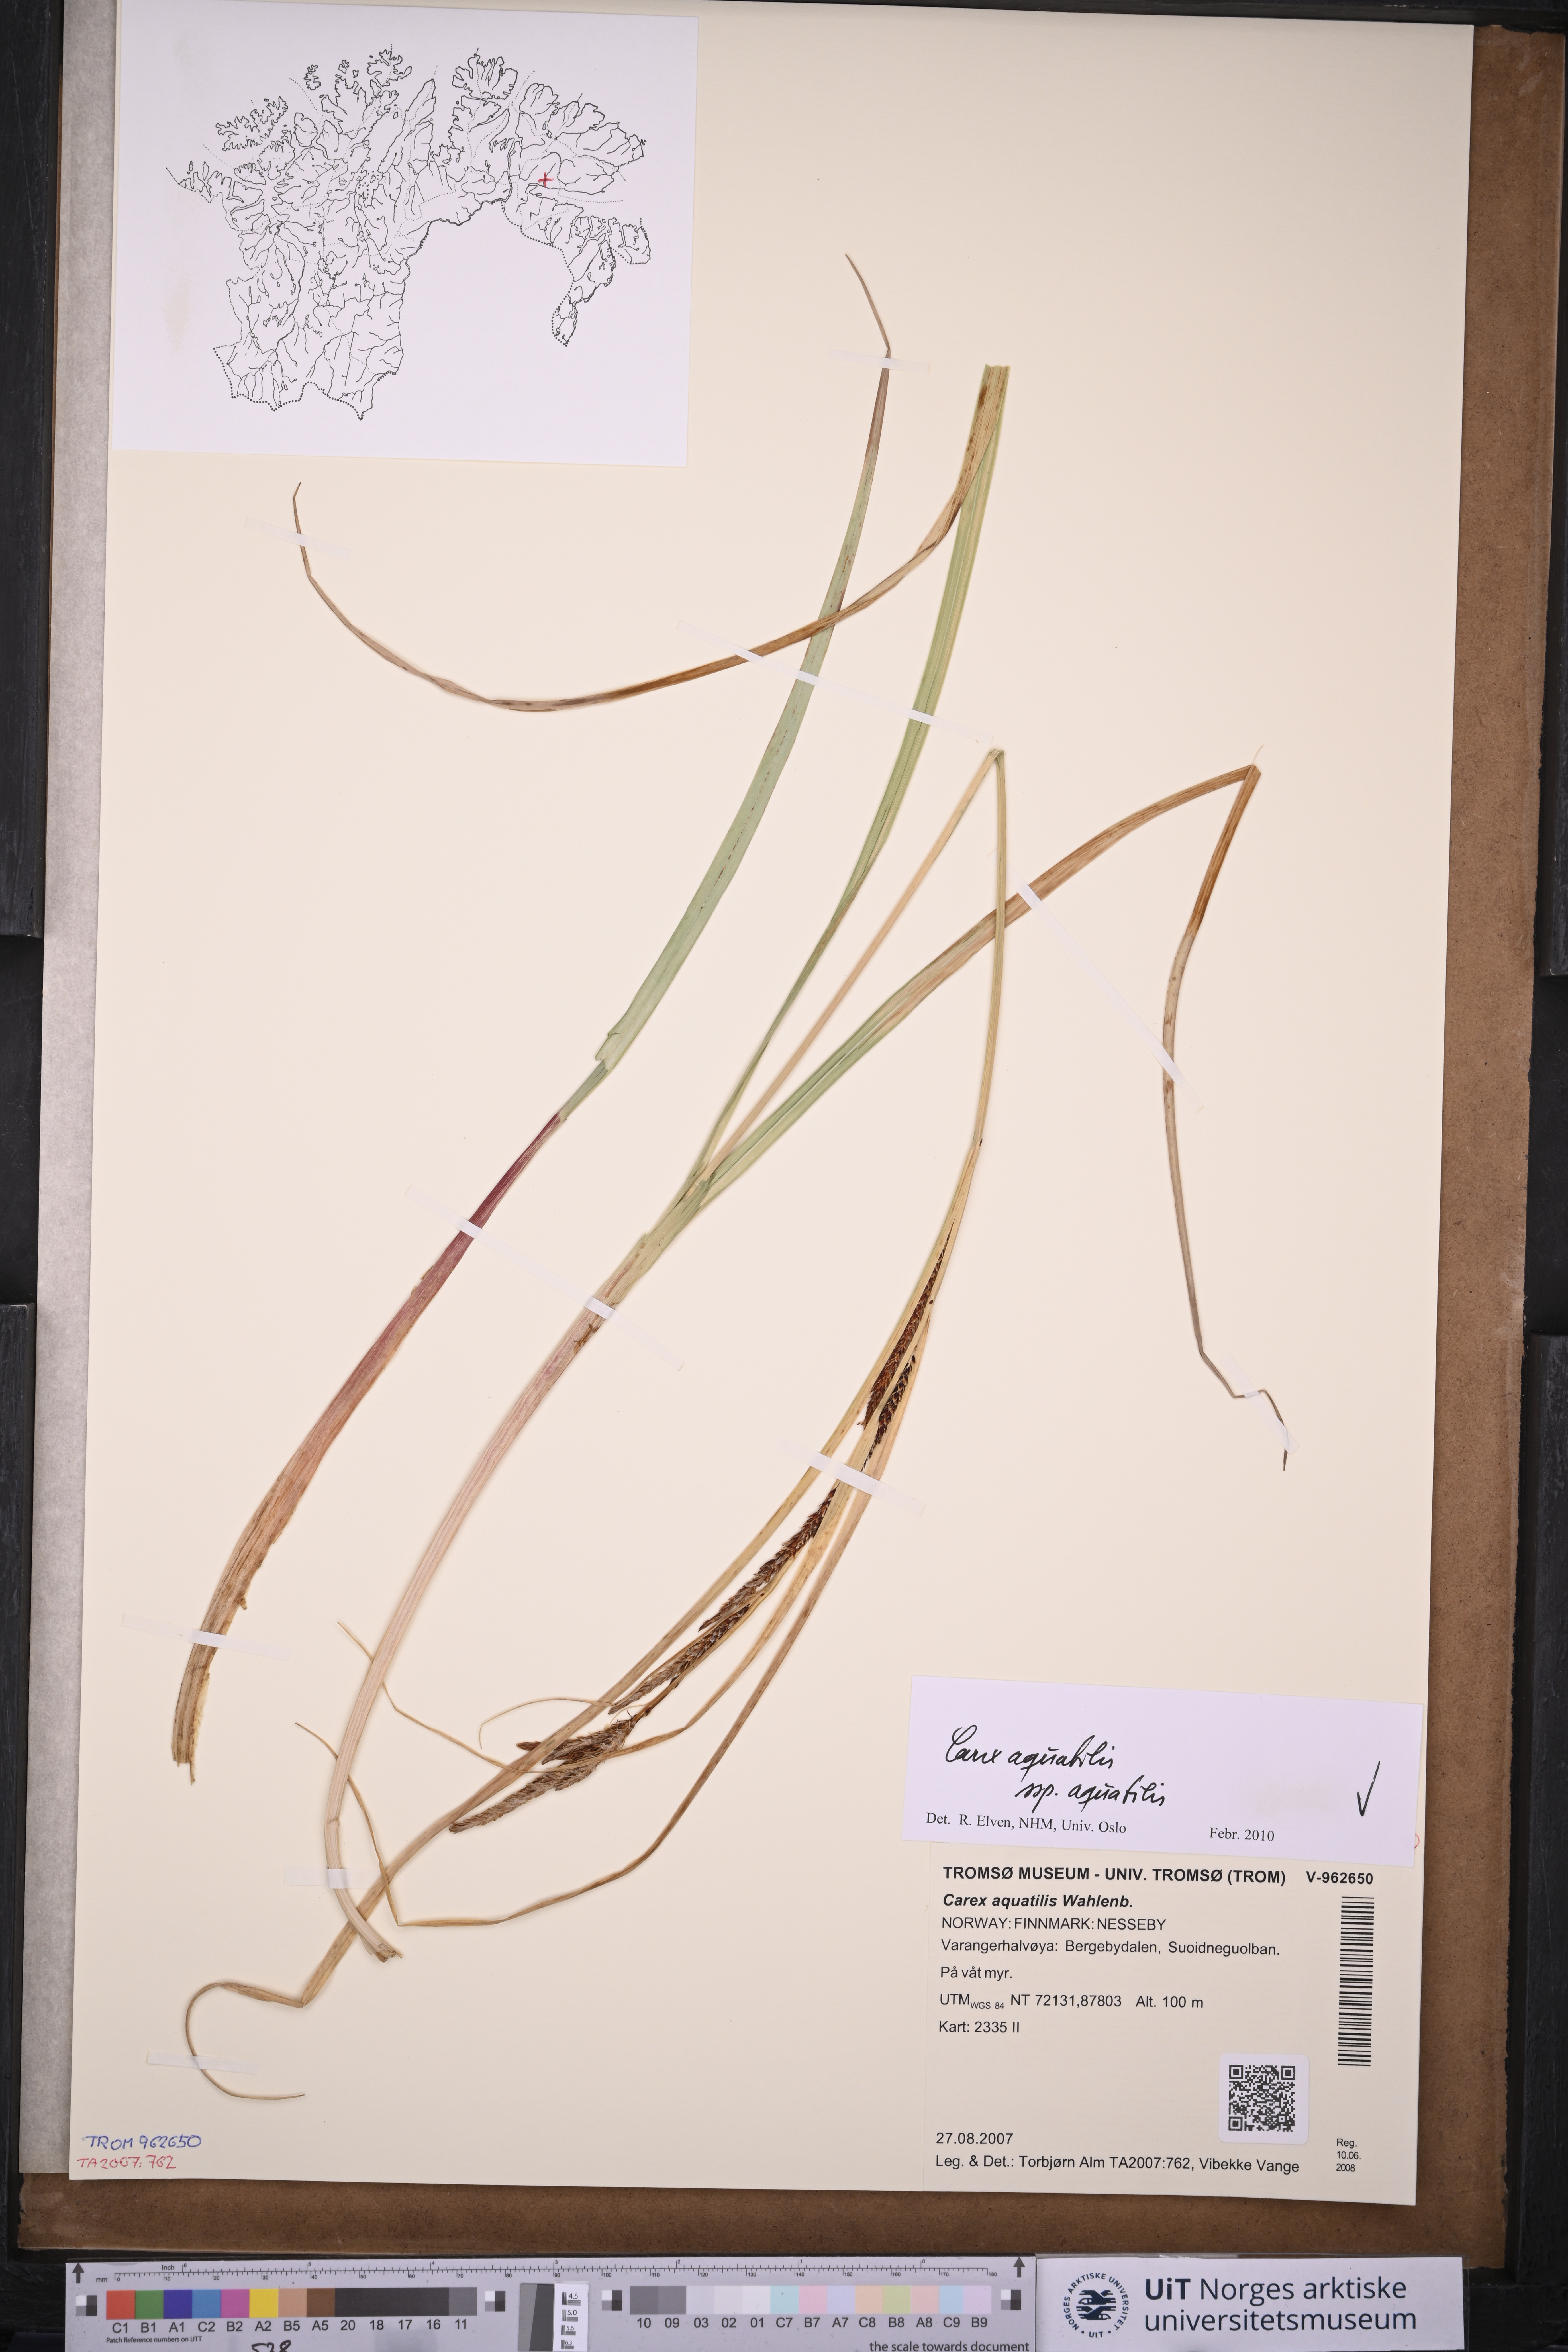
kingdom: Plantae
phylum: Tracheophyta
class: Liliopsida
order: Poales
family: Cyperaceae
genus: Carex
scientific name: Carex aquatilis
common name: Water sedge
